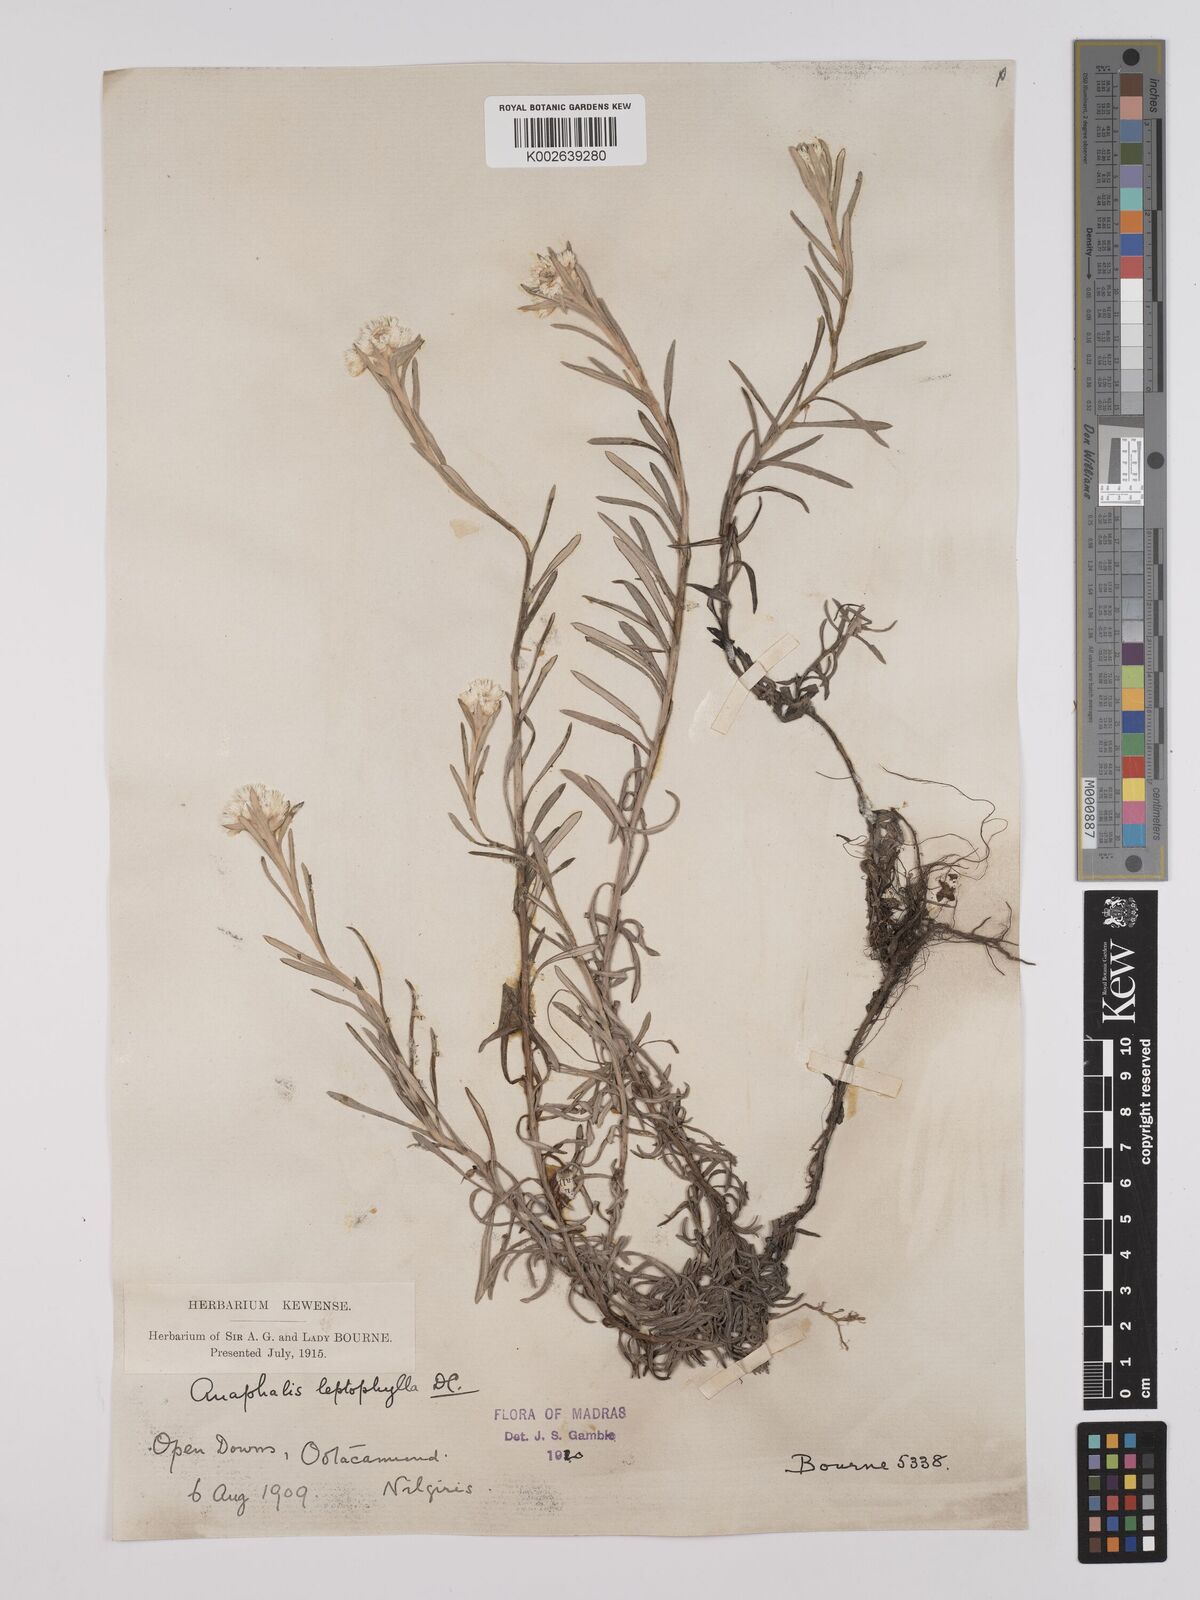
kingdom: Plantae
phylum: Tracheophyta
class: Magnoliopsida
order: Asterales
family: Asteraceae
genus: Anaphalis
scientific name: Anaphalis
